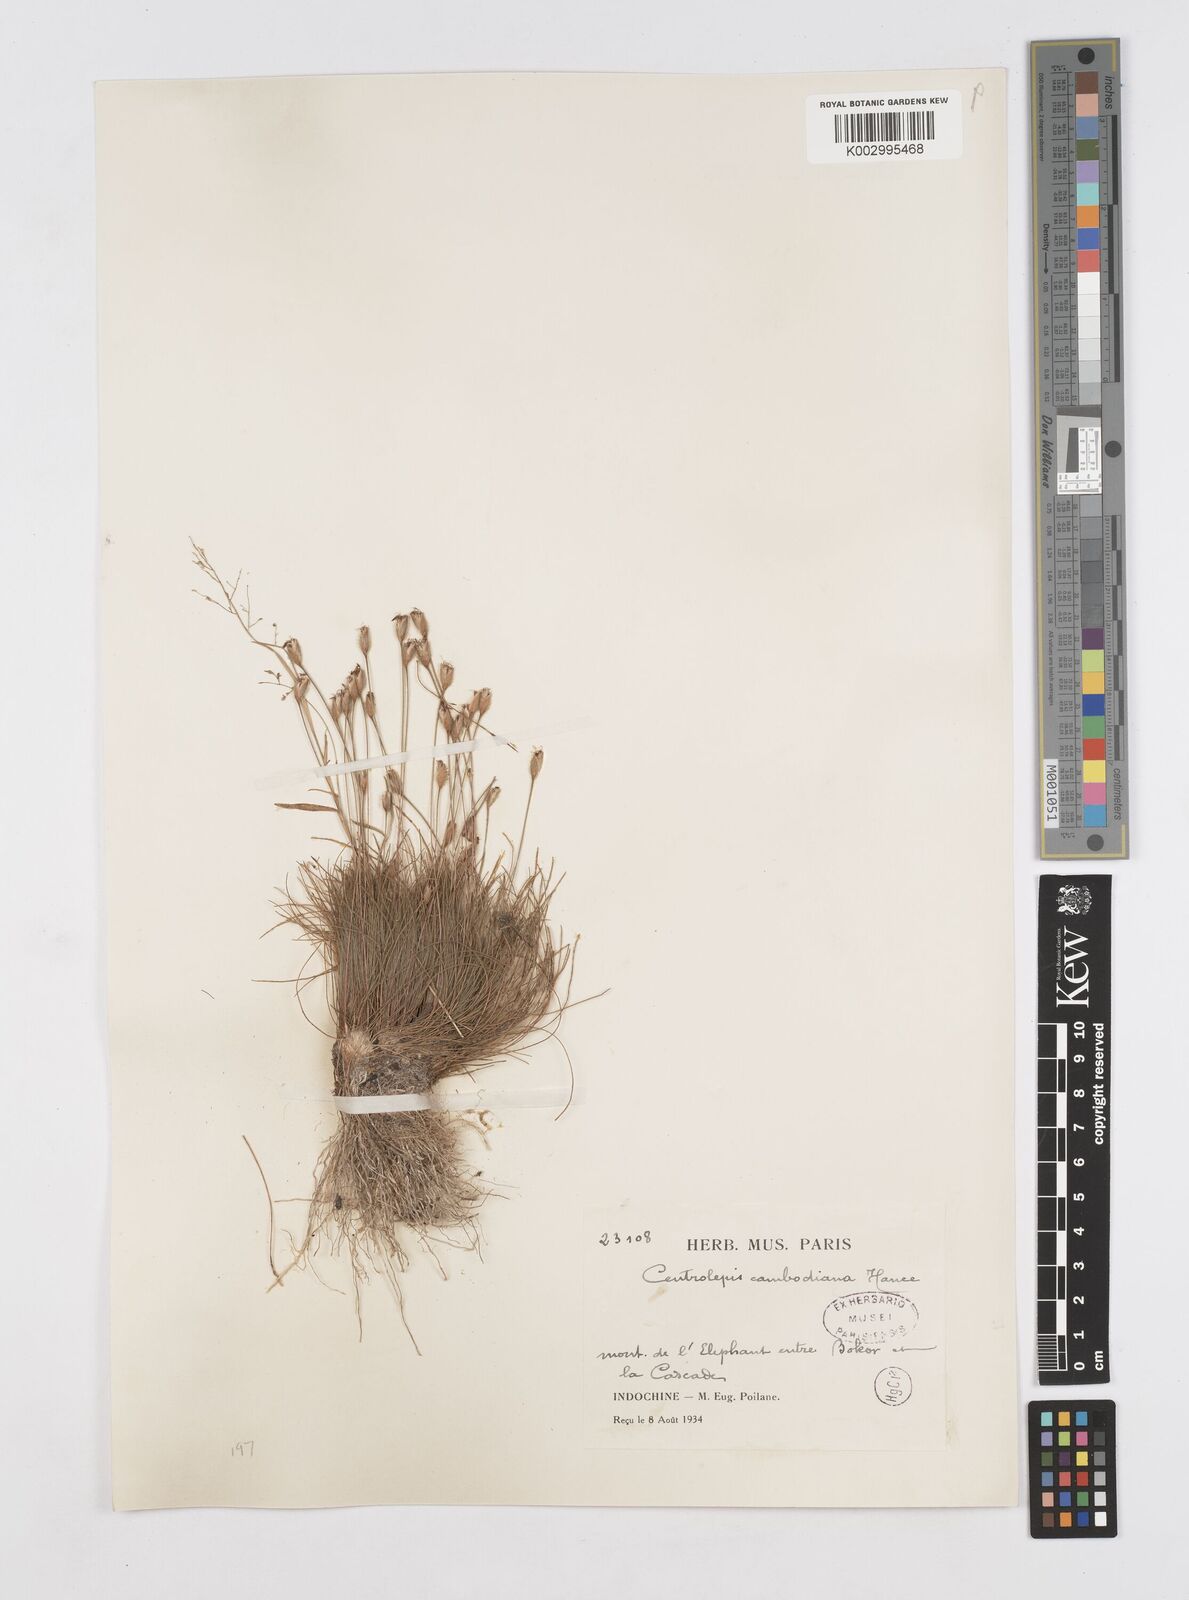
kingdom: Plantae
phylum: Tracheophyta
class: Liliopsida
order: Poales
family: Restionaceae
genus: Centrolepis
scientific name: Centrolepis cambodiana
